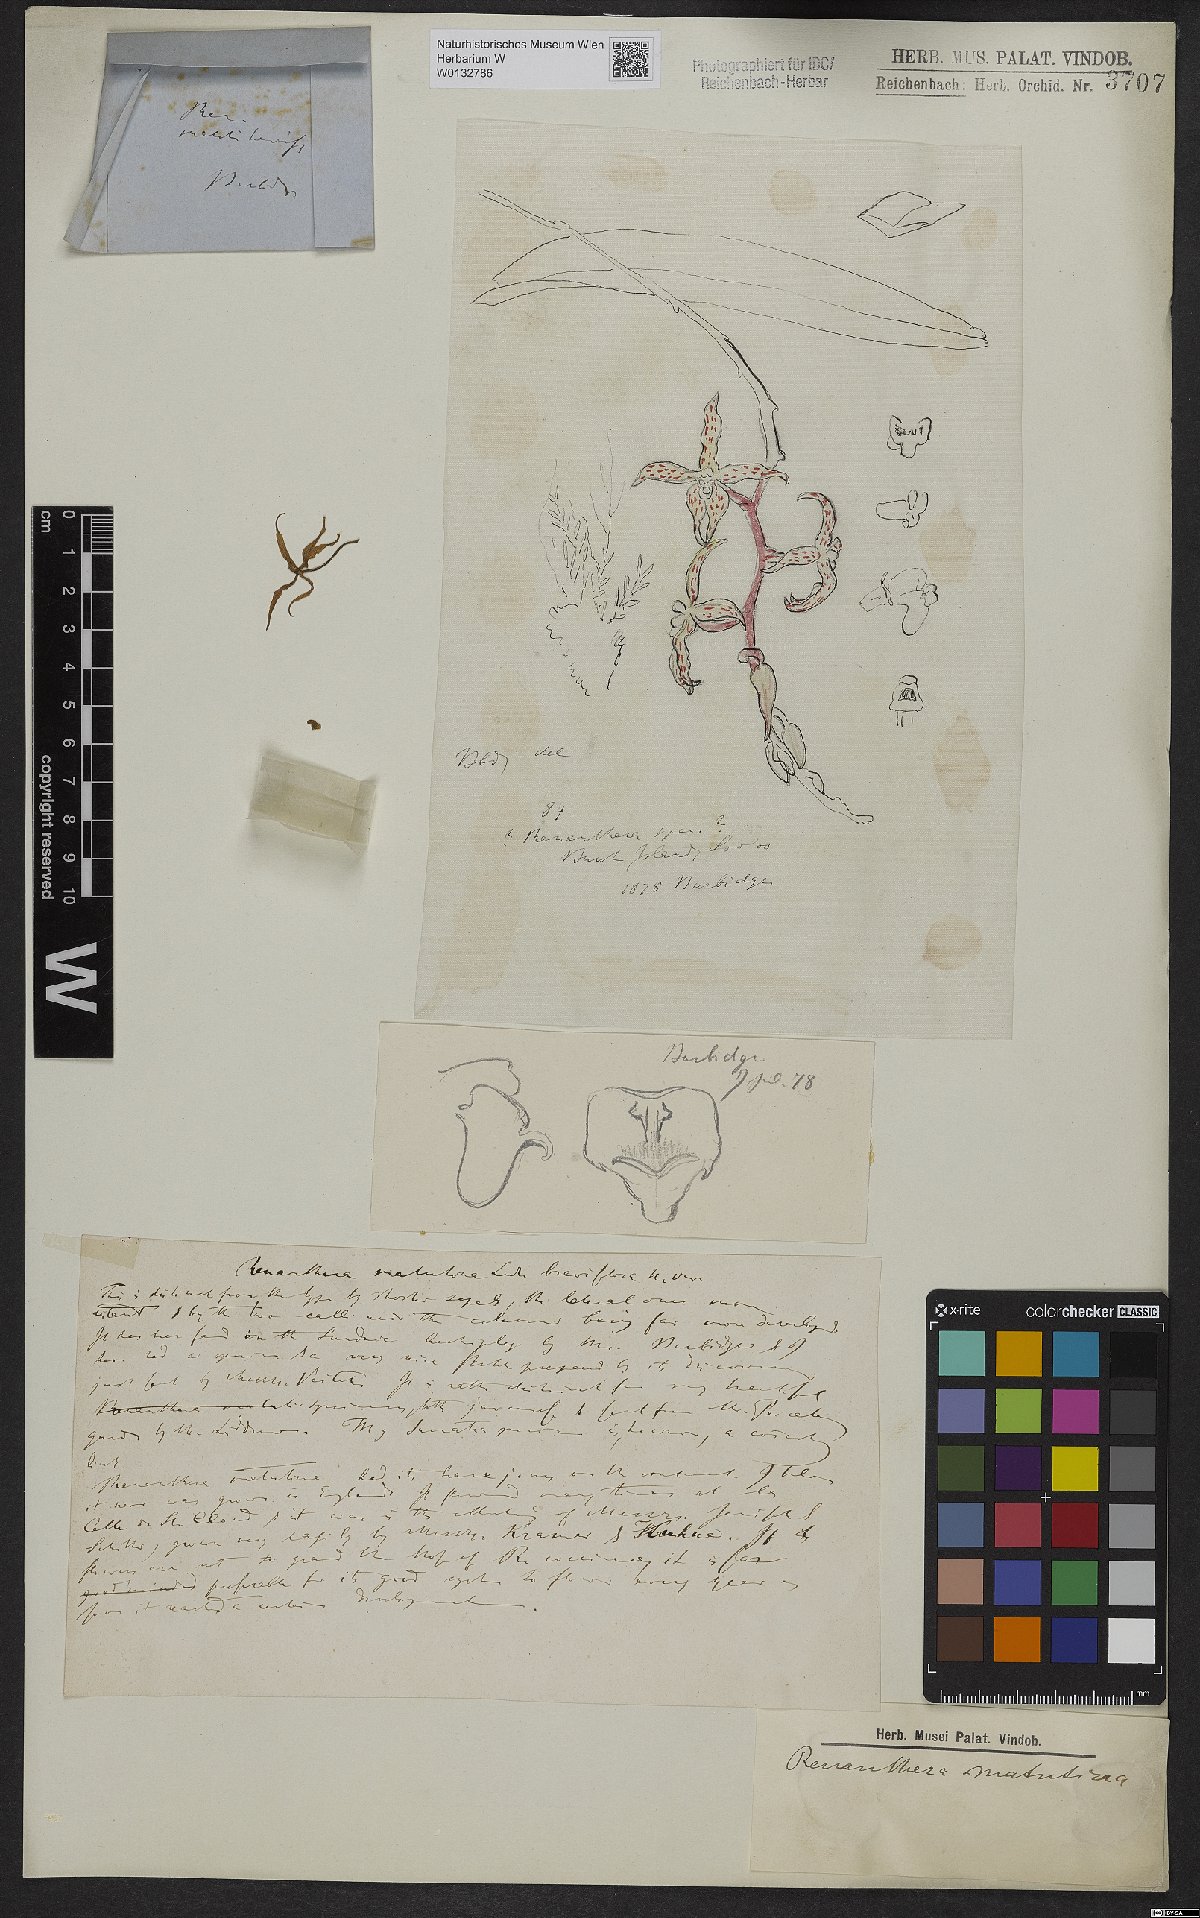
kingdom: Plantae
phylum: Tracheophyta
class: Liliopsida
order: Asparagales
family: Orchidaceae
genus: Renanthera
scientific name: Renanthera matutina
